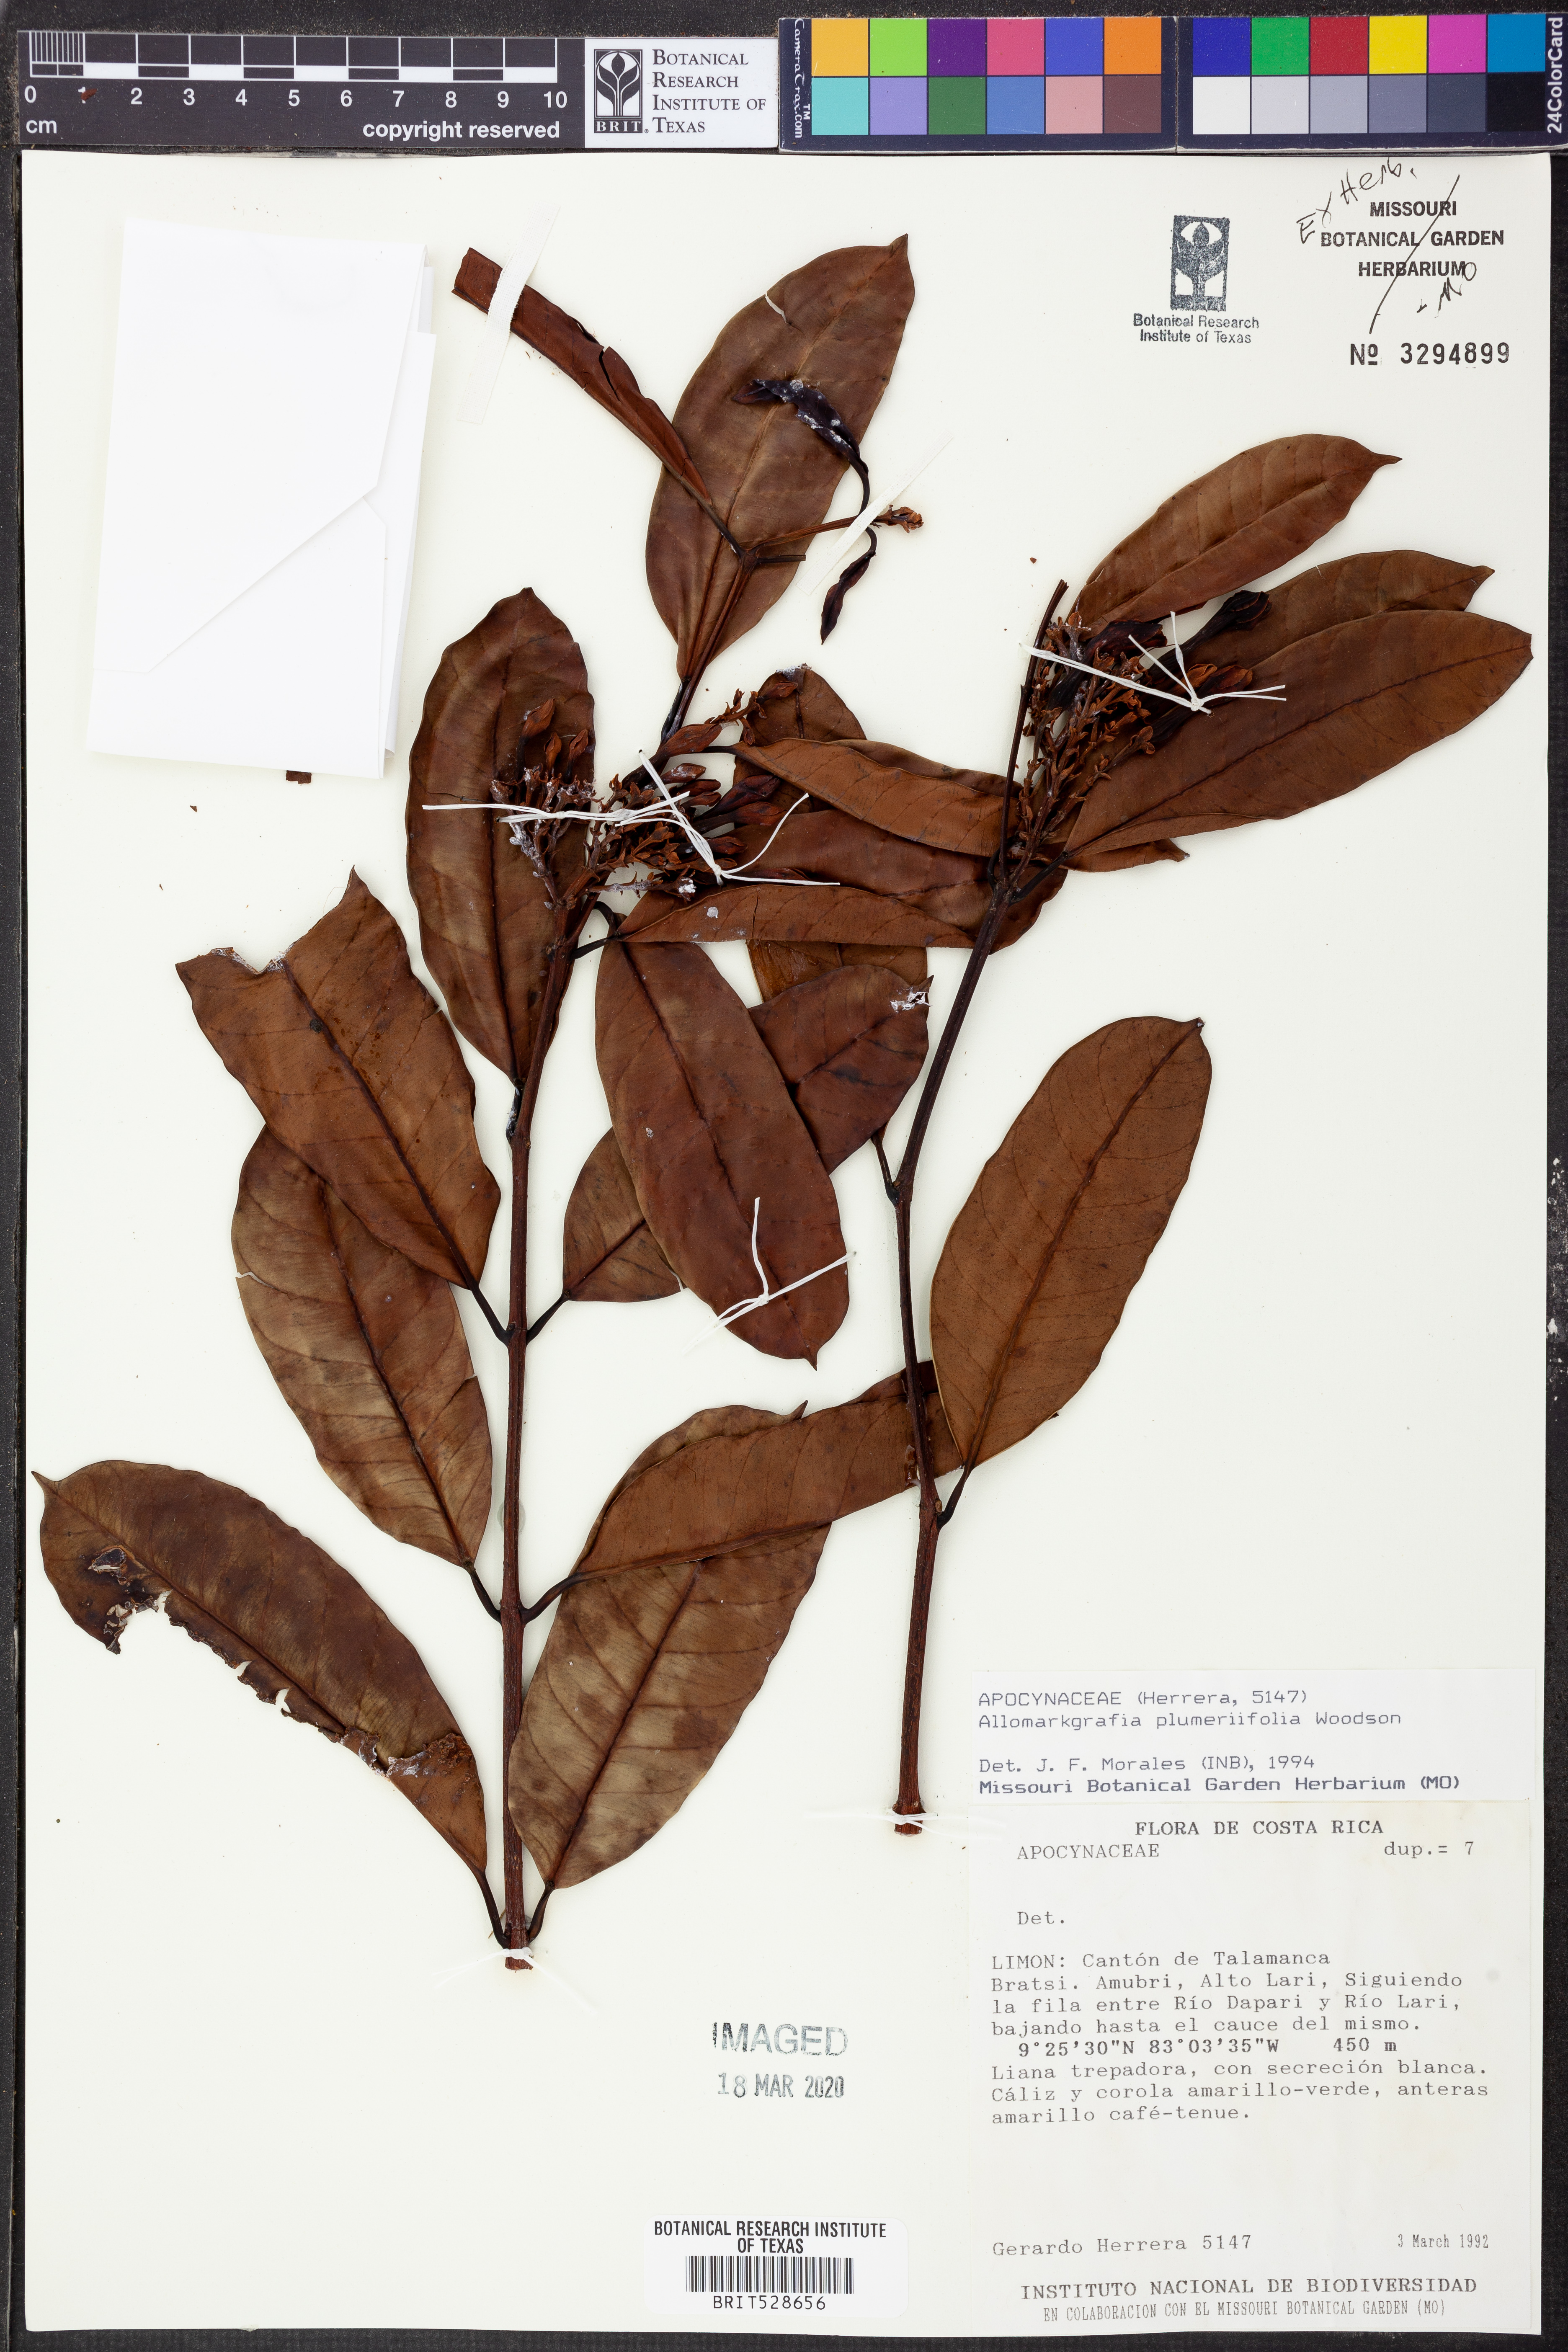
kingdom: Plantae
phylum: Tracheophyta
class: Magnoliopsida
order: Gentianales
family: Apocynaceae
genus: Allomarkgrafia
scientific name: Allomarkgrafia plumeriiflora
